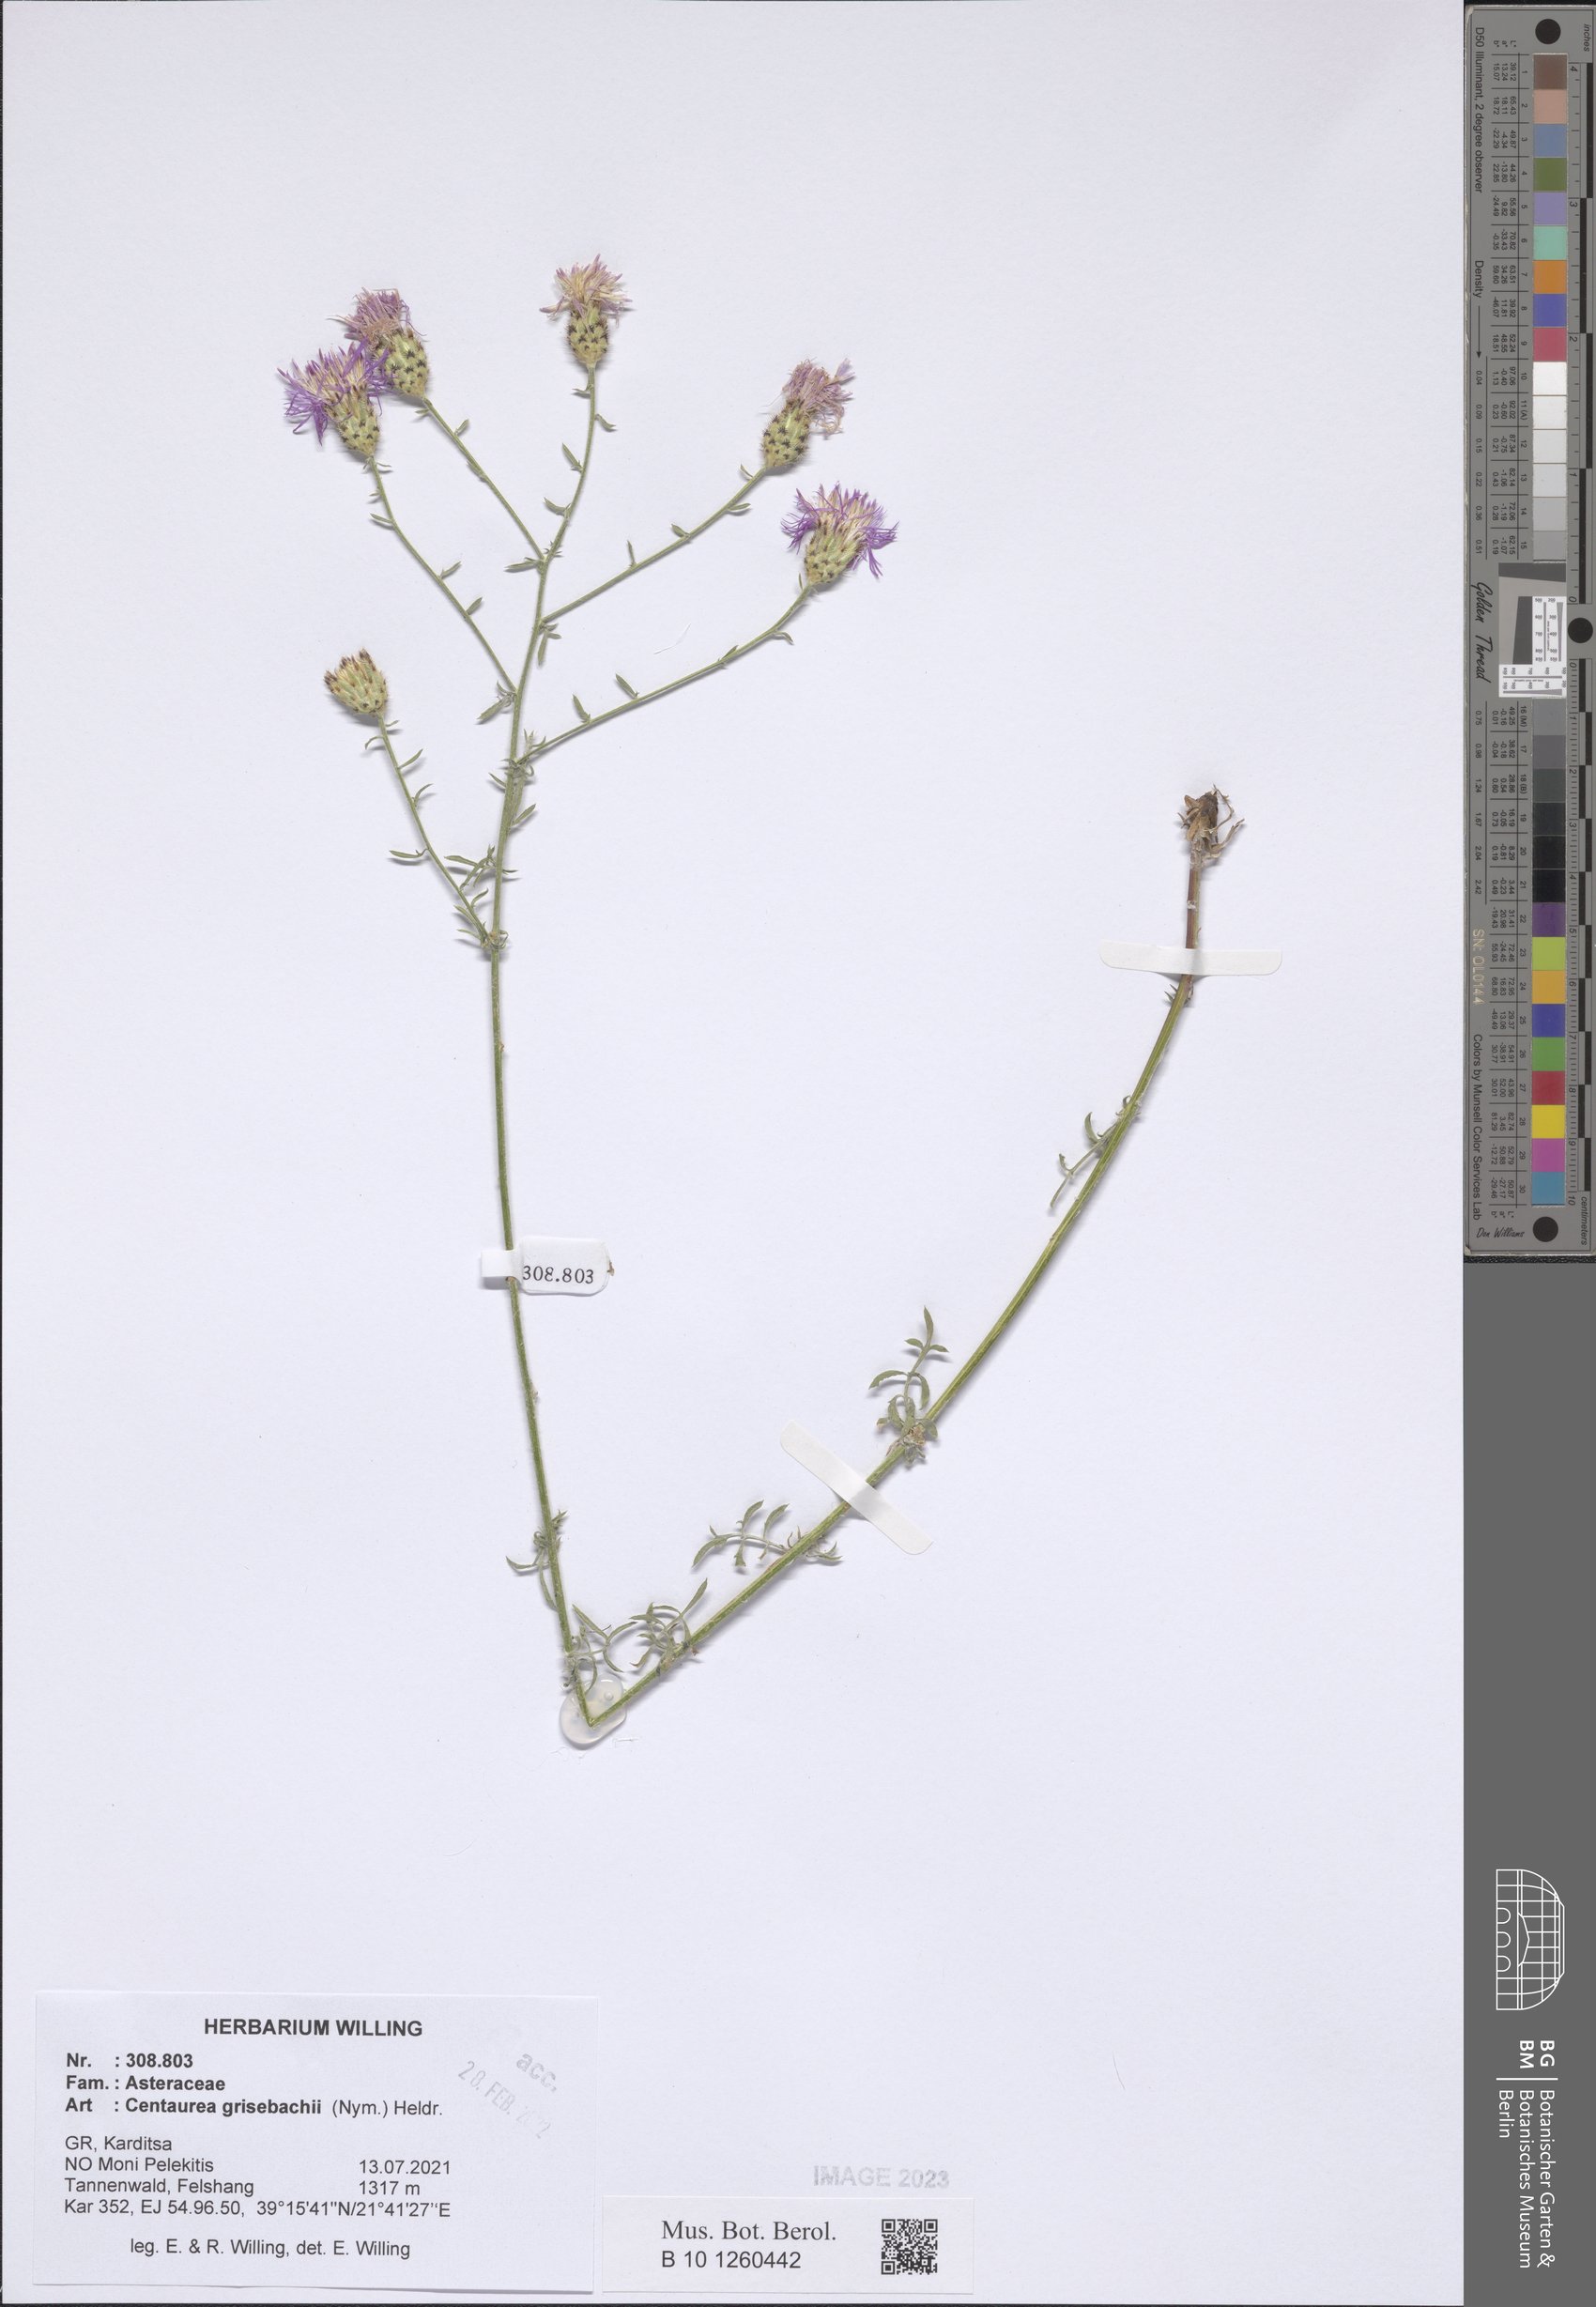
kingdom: Plantae
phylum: Tracheophyta
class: Magnoliopsida
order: Asterales
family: Asteraceae
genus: Centaurea
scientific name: Centaurea grisebachii
